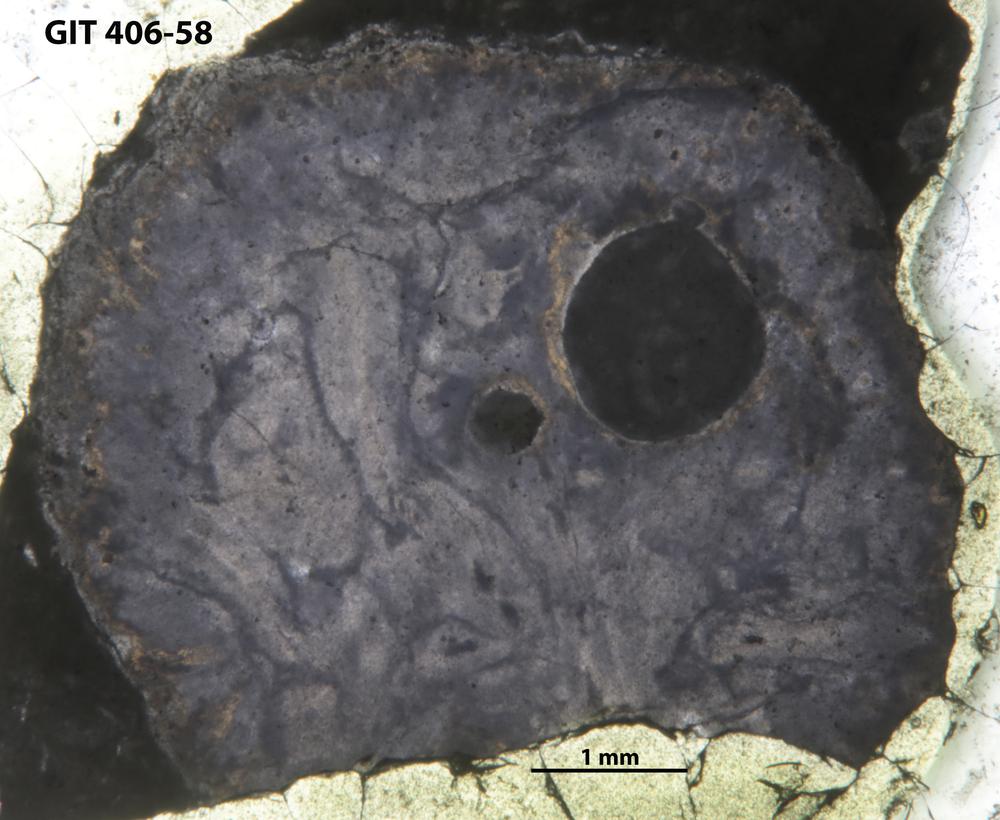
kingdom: Animalia
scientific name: Animalia
